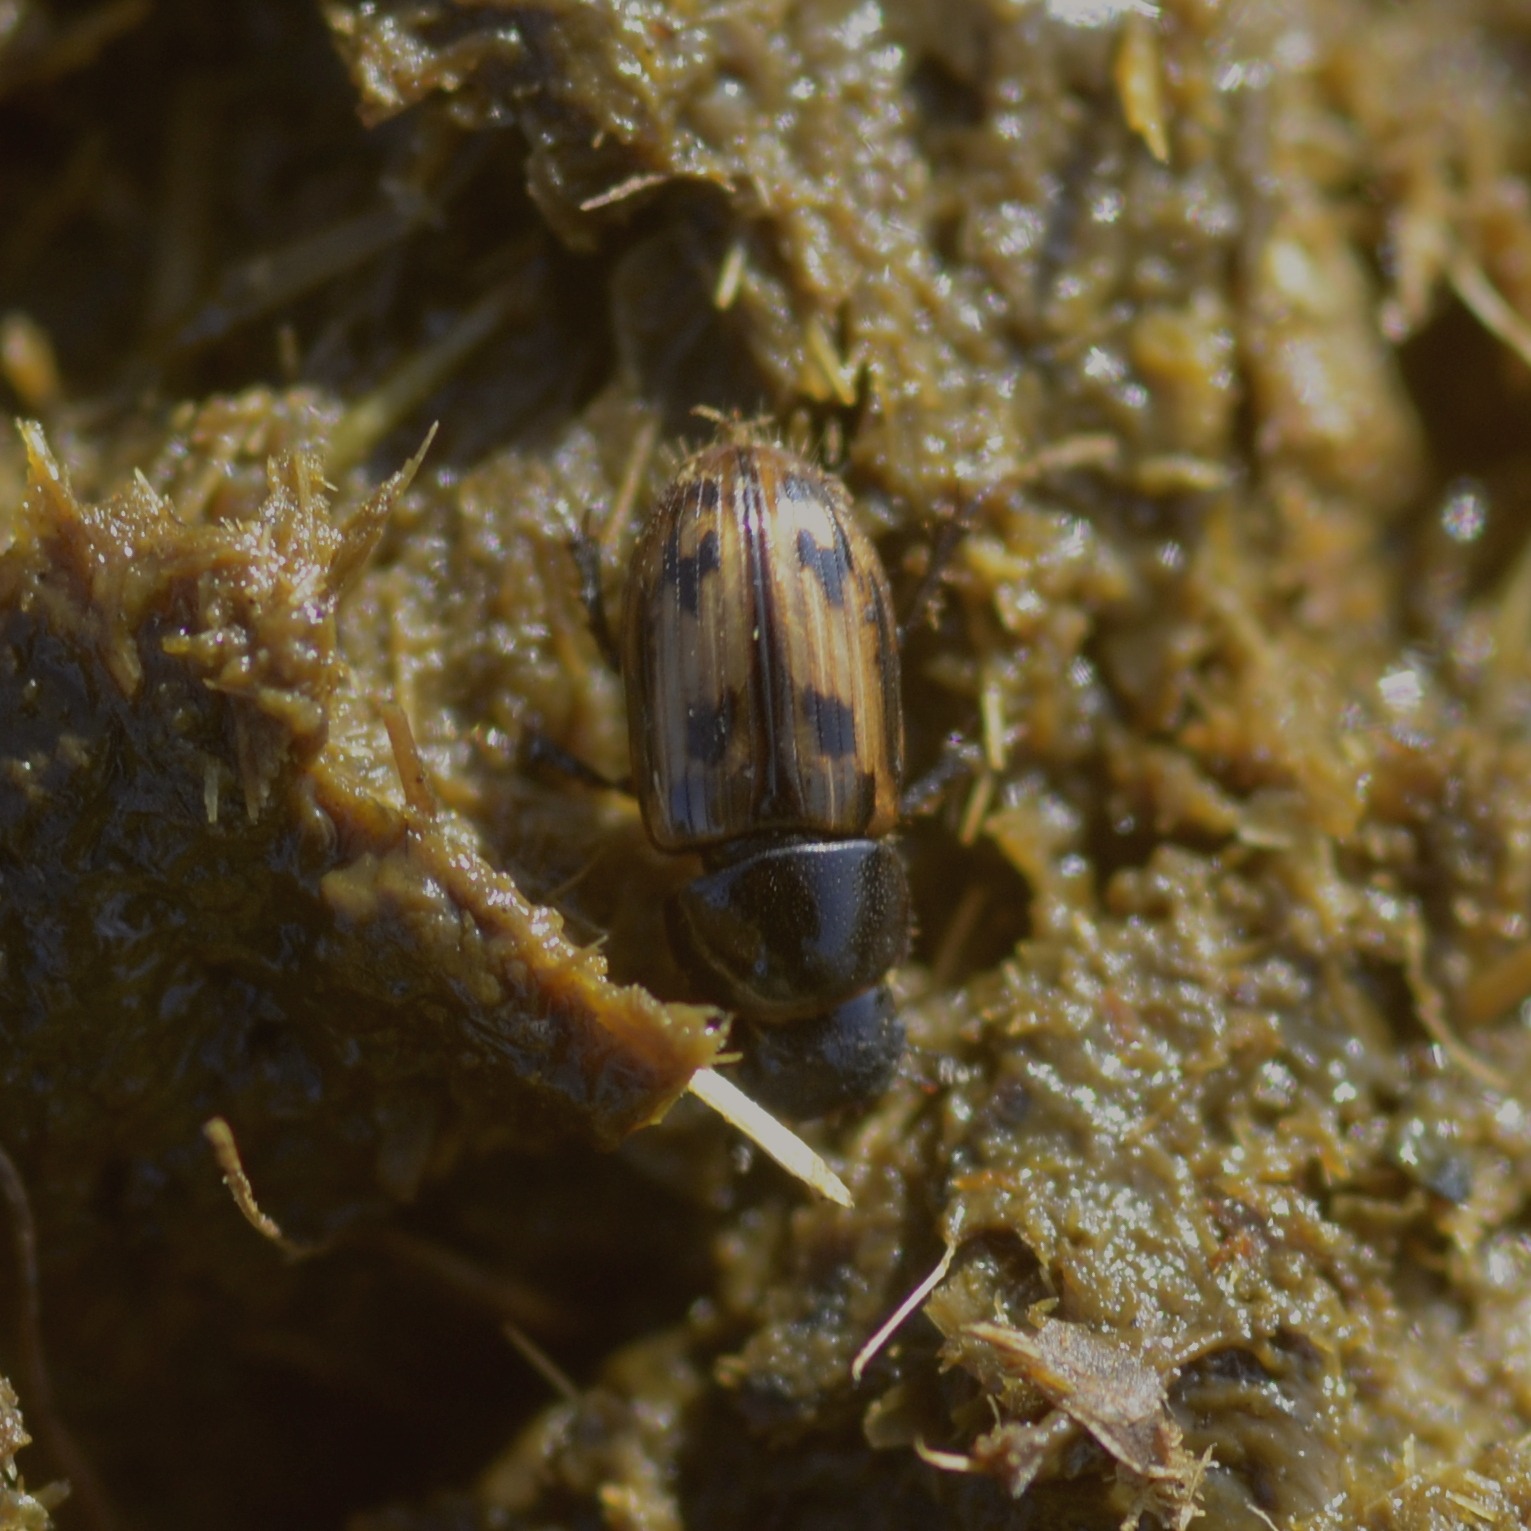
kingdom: Animalia
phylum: Arthropoda
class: Insecta
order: Coleoptera
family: Scarabaeidae
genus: Chilothorax
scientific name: Chilothorax distinctus
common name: Tidlig møgbille
